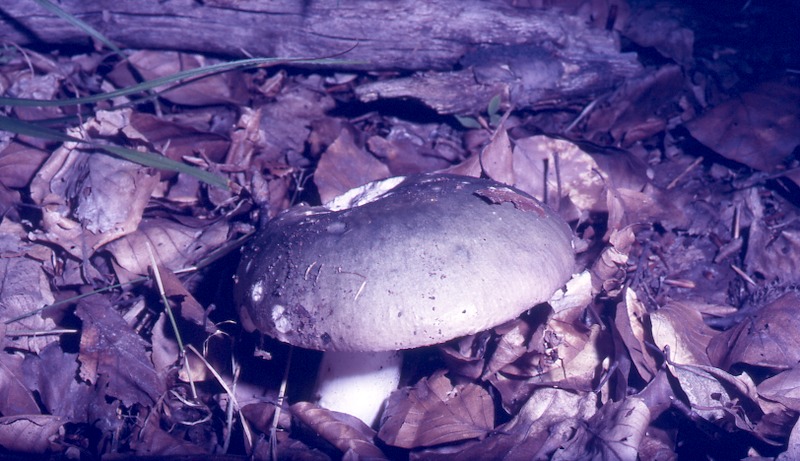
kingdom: Fungi
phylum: Basidiomycota
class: Agaricomycetes
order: Russulales
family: Russulaceae
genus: Russula
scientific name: Russula cyanoxantha
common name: Charcoal burner
